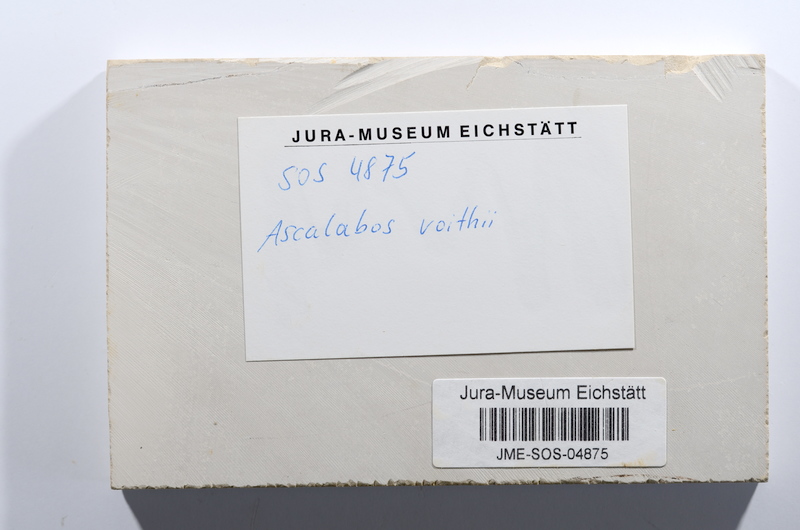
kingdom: Animalia
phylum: Chordata
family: Ascalaboidae
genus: Ascalabos
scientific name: Ascalabos voithii
